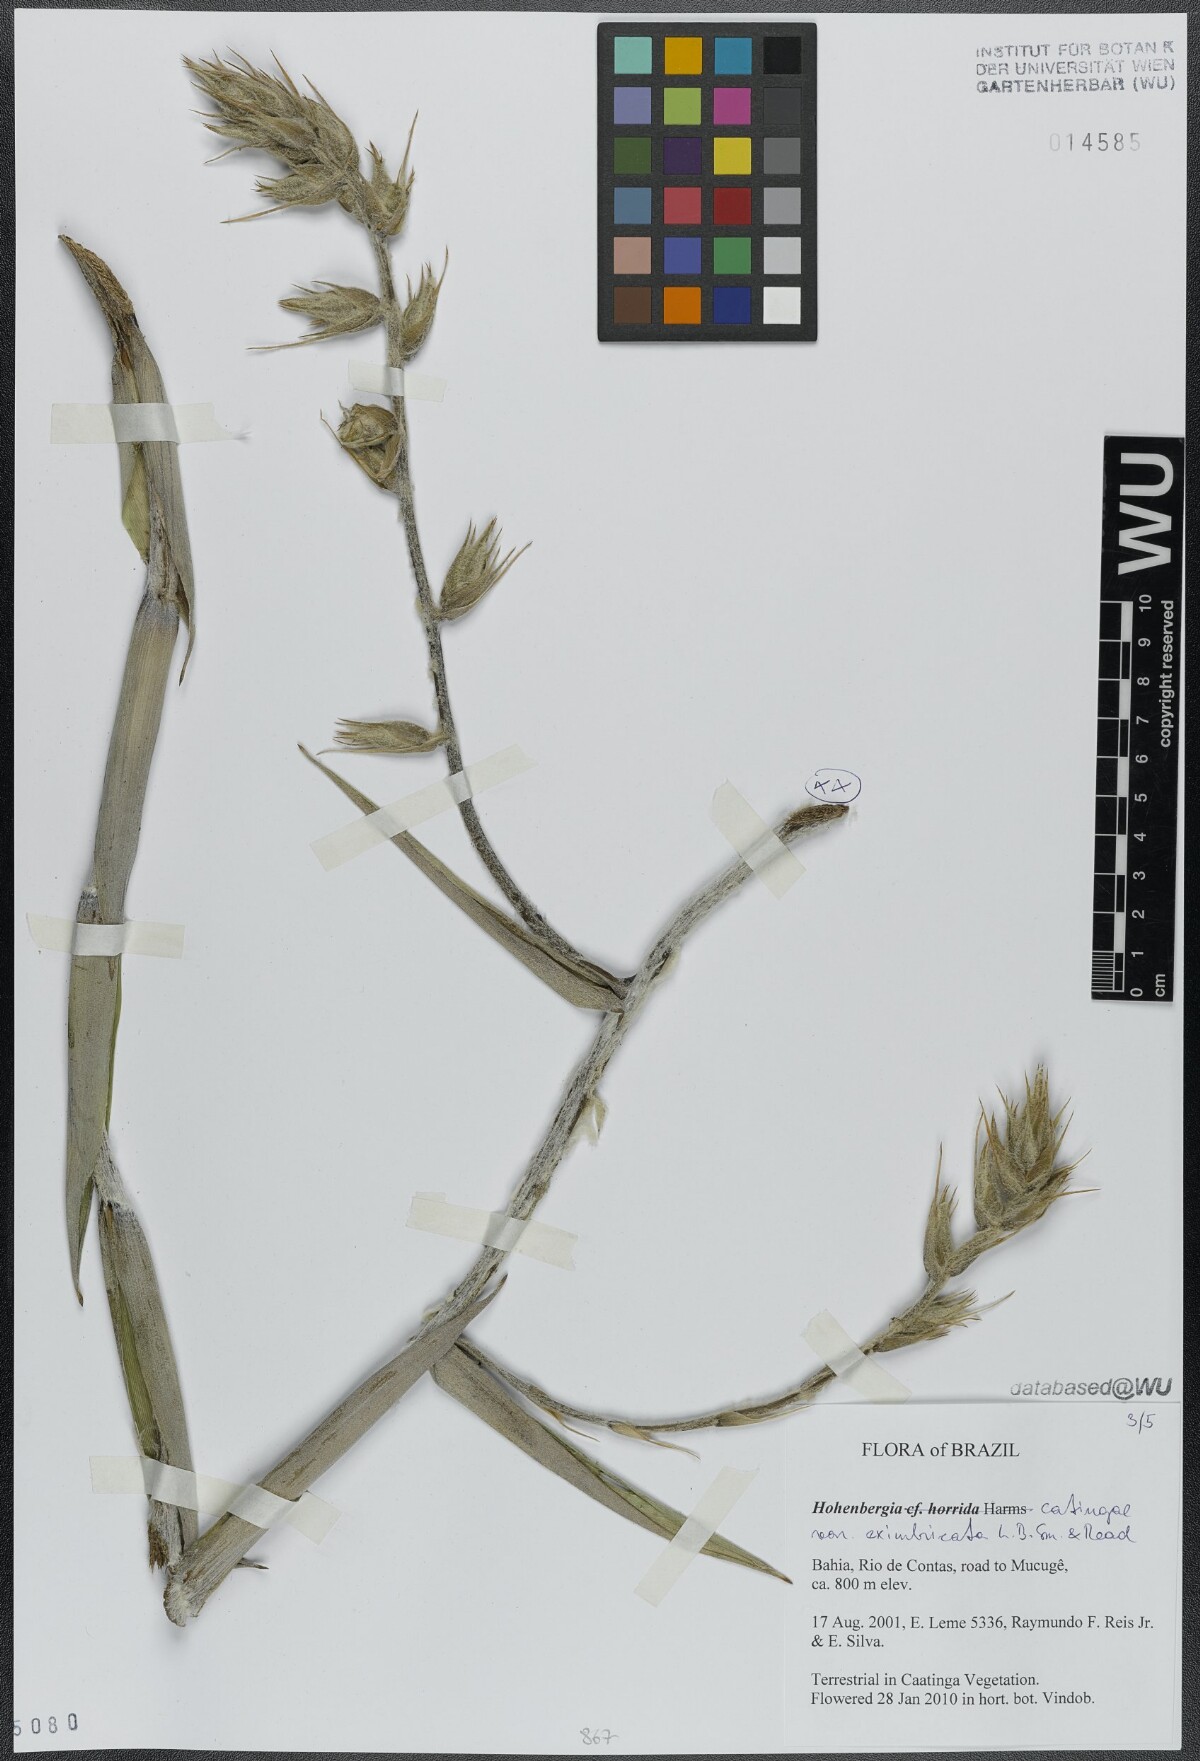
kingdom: Plantae
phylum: Tracheophyta
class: Liliopsida
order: Poales
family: Bromeliaceae
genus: Hohenbergia
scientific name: Hohenbergia catingae
